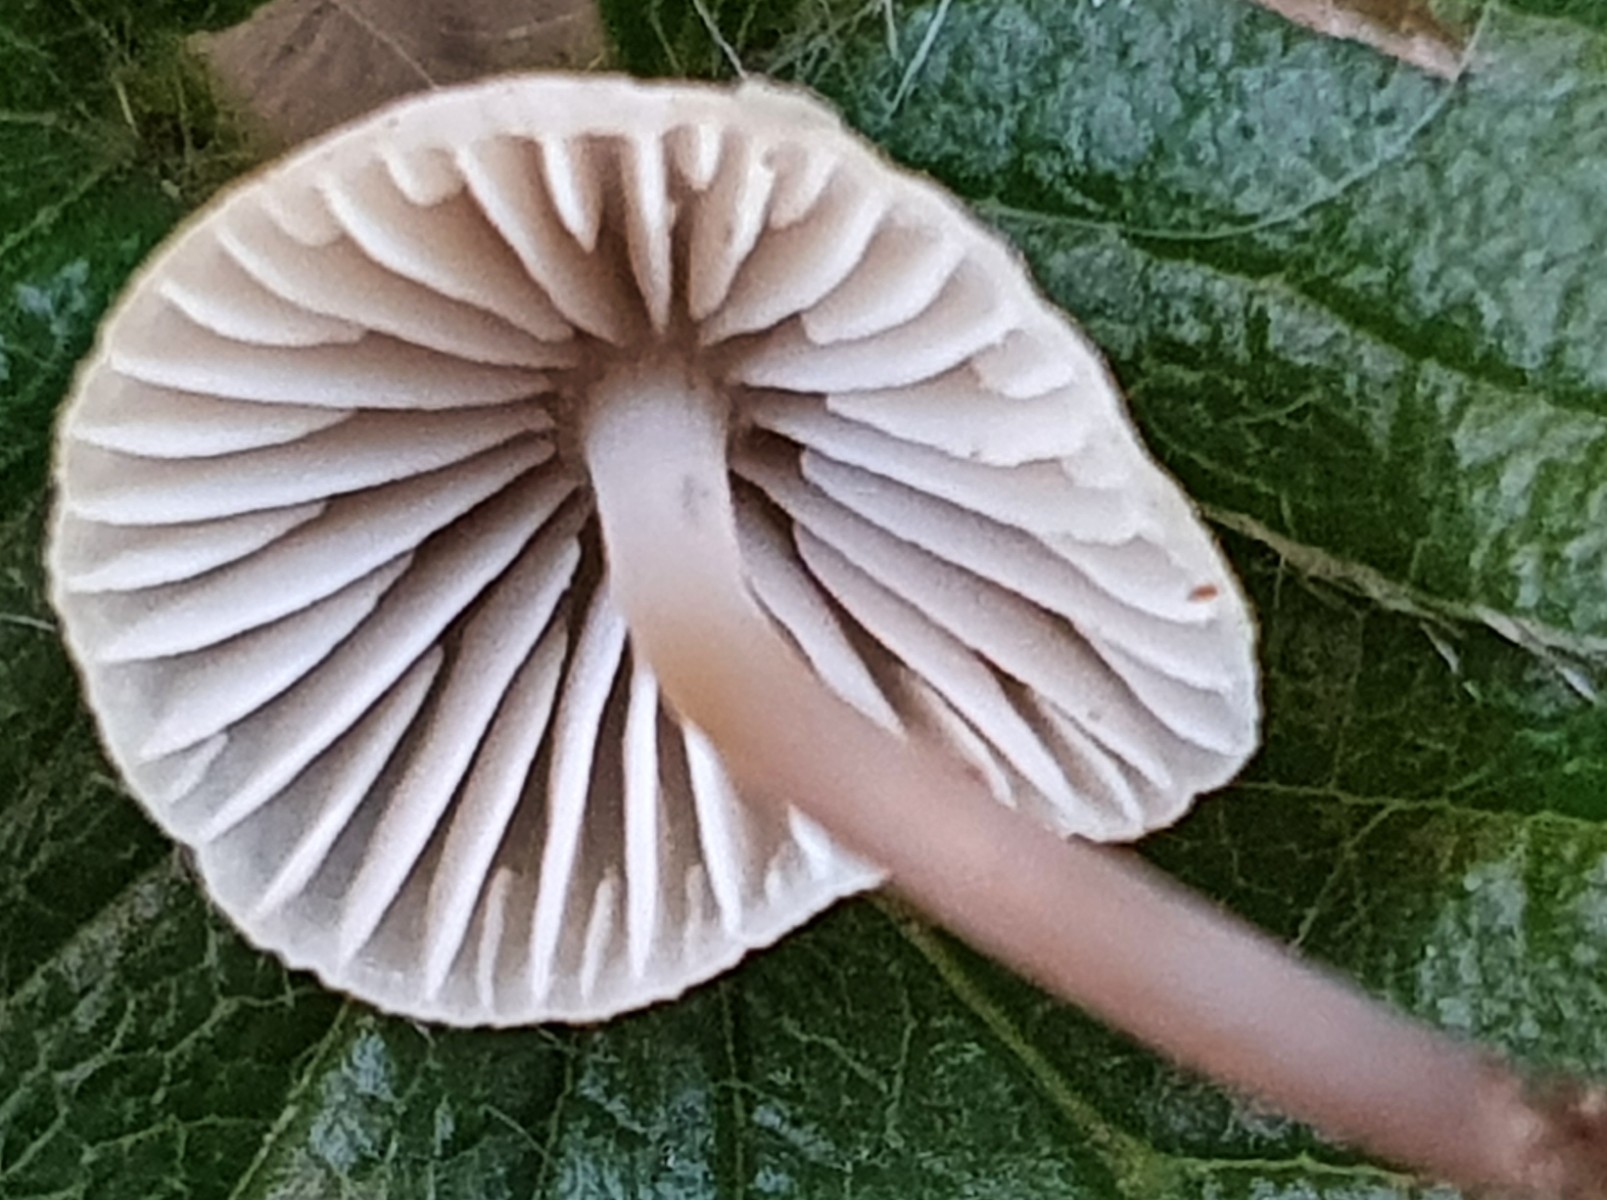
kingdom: Fungi
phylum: Basidiomycota
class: Agaricomycetes
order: Agaricales
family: Mycenaceae
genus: Mycena
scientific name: Mycena arcangeliana
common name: oliven-huesvamp
